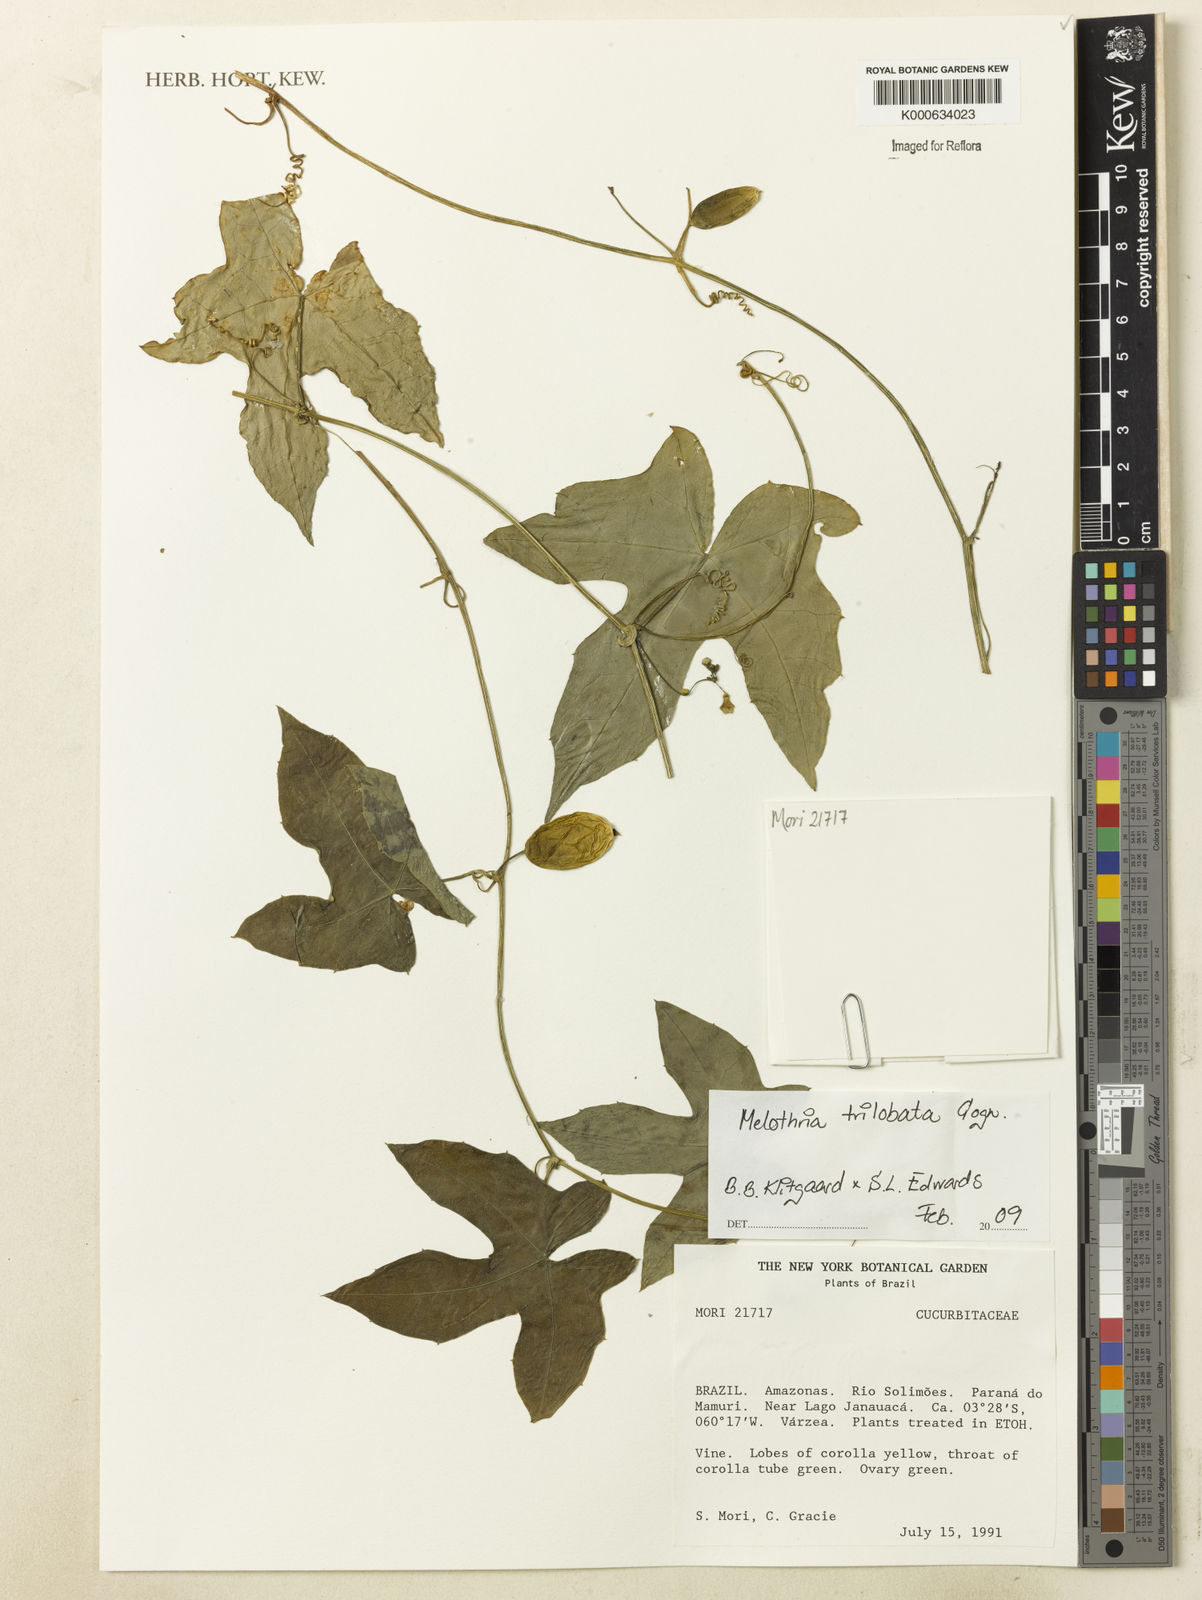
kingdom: Plantae
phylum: Tracheophyta
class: Magnoliopsida
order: Cucurbitales
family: Cucurbitaceae
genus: Melothria
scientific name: Melothria trilobata
